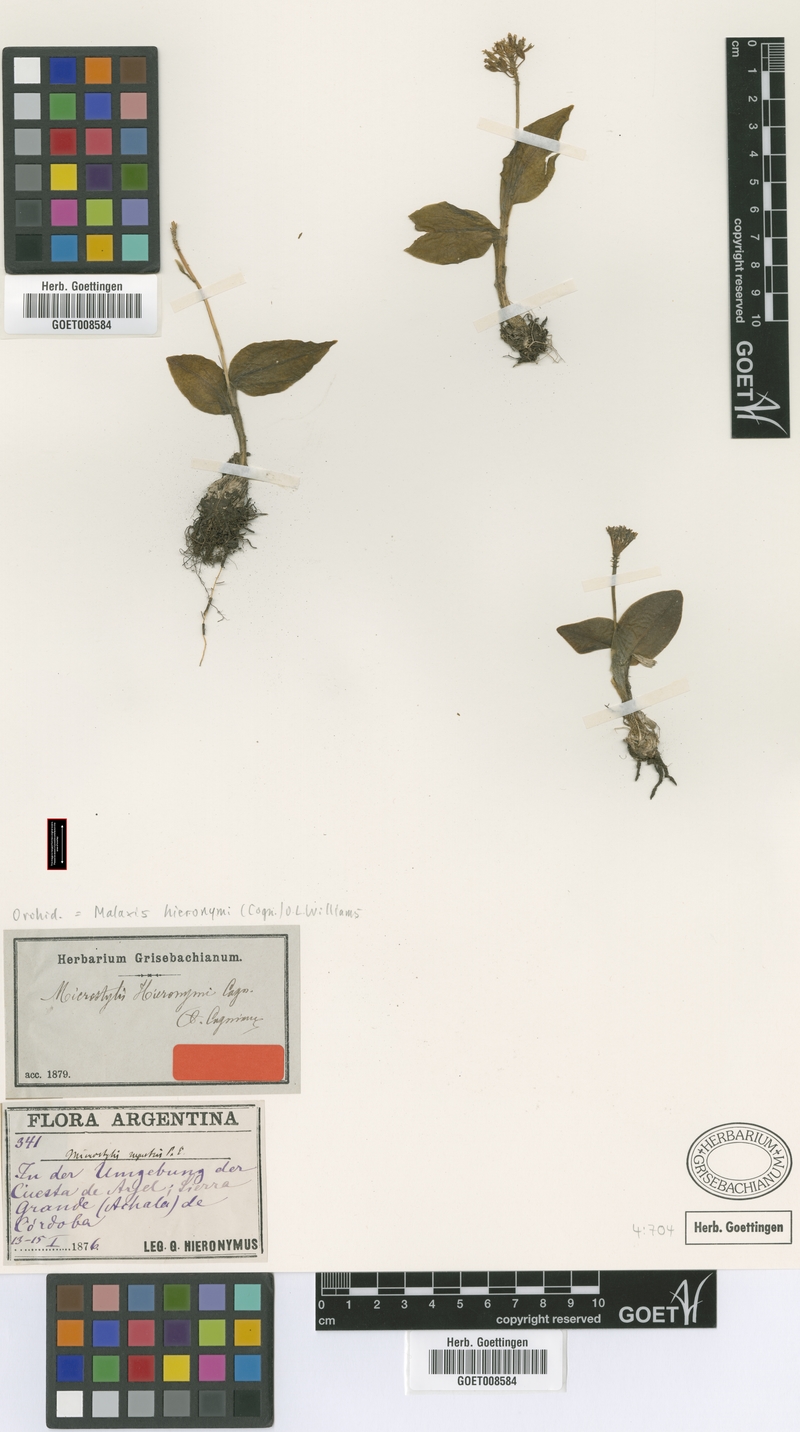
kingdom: Plantae
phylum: Tracheophyta
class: Liliopsida
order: Asparagales
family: Orchidaceae
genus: Malaxis
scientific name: Malaxis hieronymi
